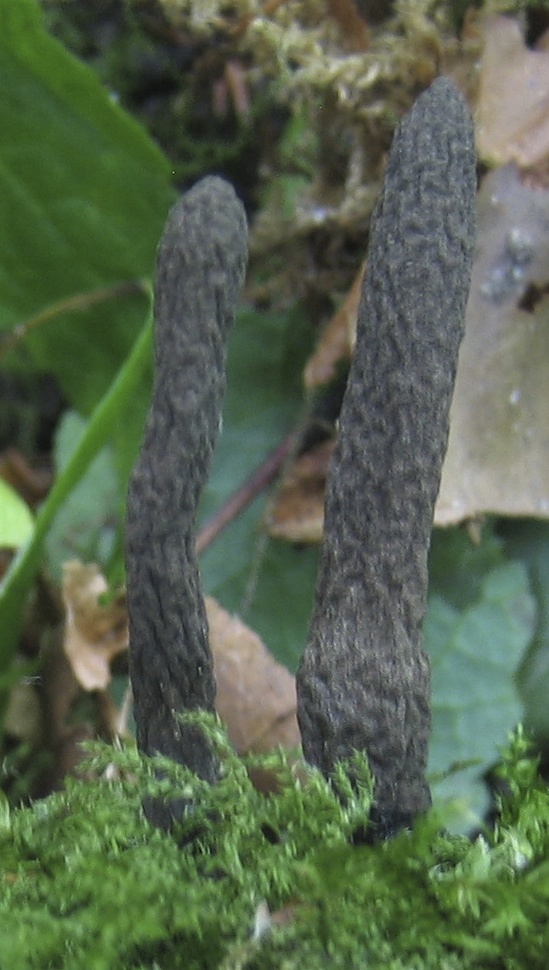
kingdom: Fungi
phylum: Ascomycota
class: Sordariomycetes
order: Xylariales
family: Xylariaceae
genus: Xylaria
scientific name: Xylaria longipes
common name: slank stødsvamp
